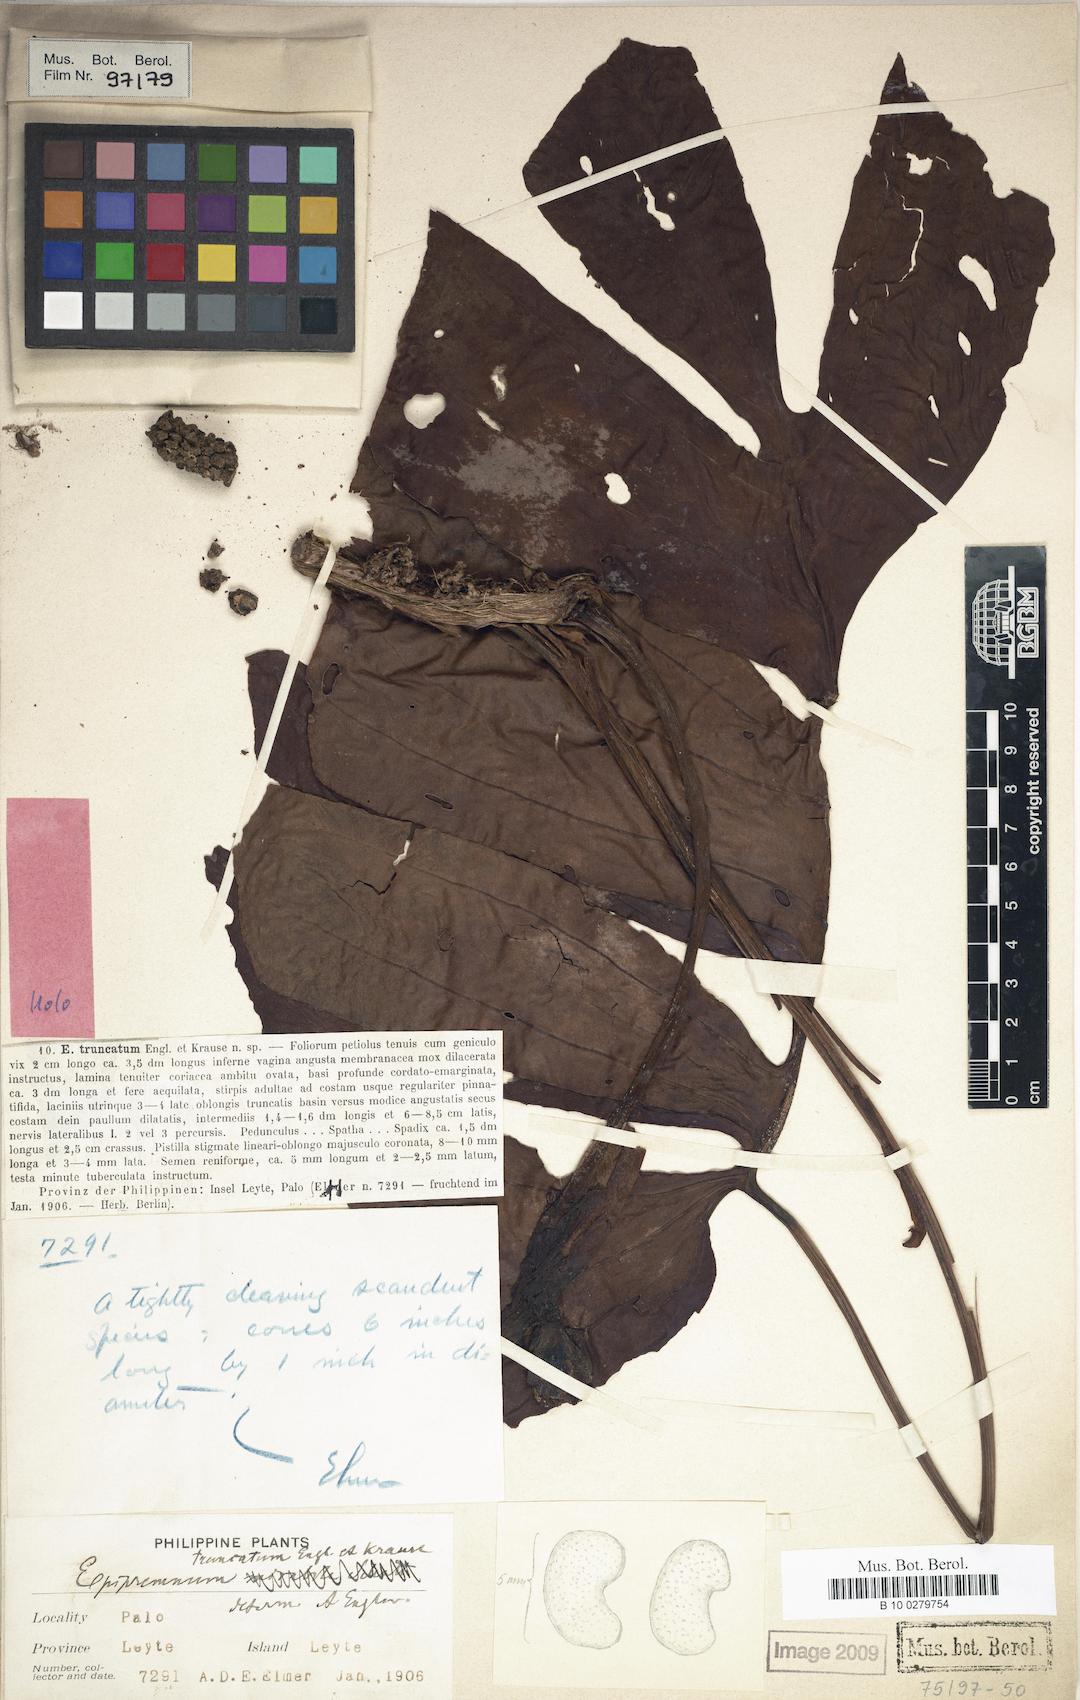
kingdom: Plantae
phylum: Tracheophyta
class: Liliopsida
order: Alismatales
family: Araceae
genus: Amydrium
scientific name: Amydrium medium
